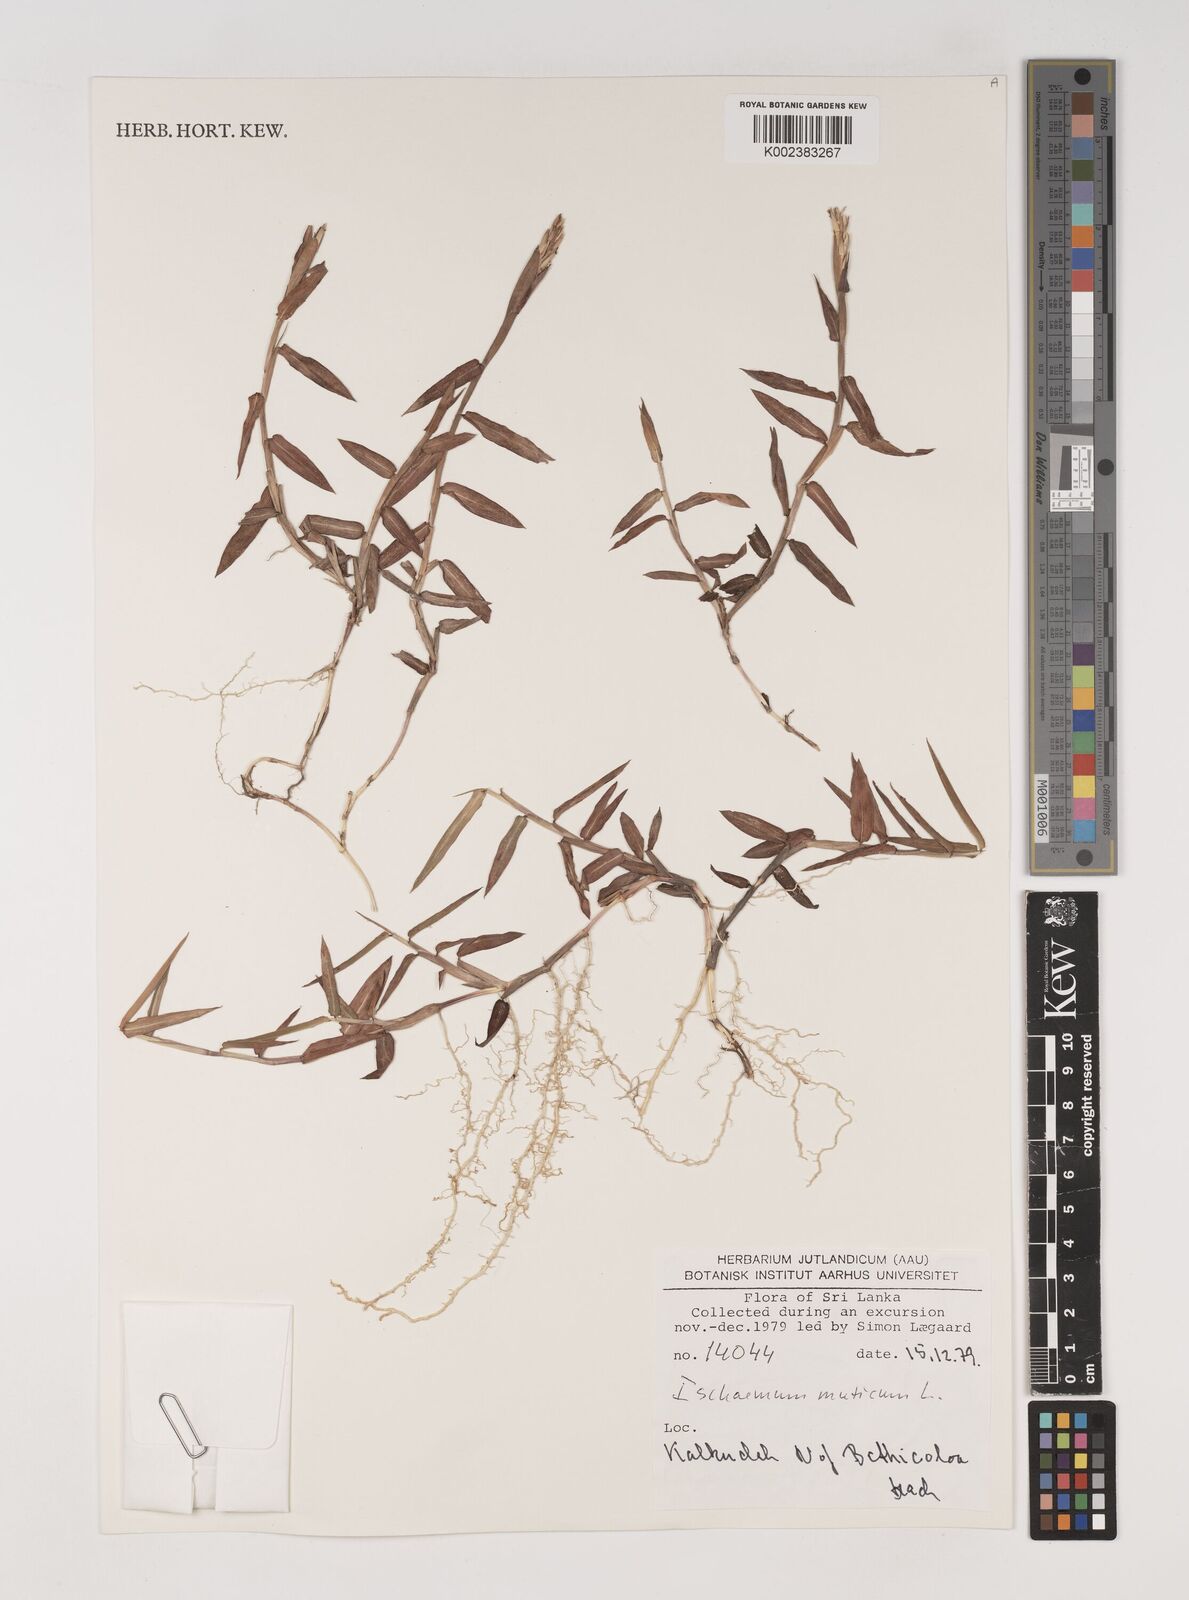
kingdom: Plantae
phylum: Tracheophyta
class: Liliopsida
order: Poales
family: Poaceae
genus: Ischaemum
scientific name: Ischaemum muticum
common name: Drought grass
